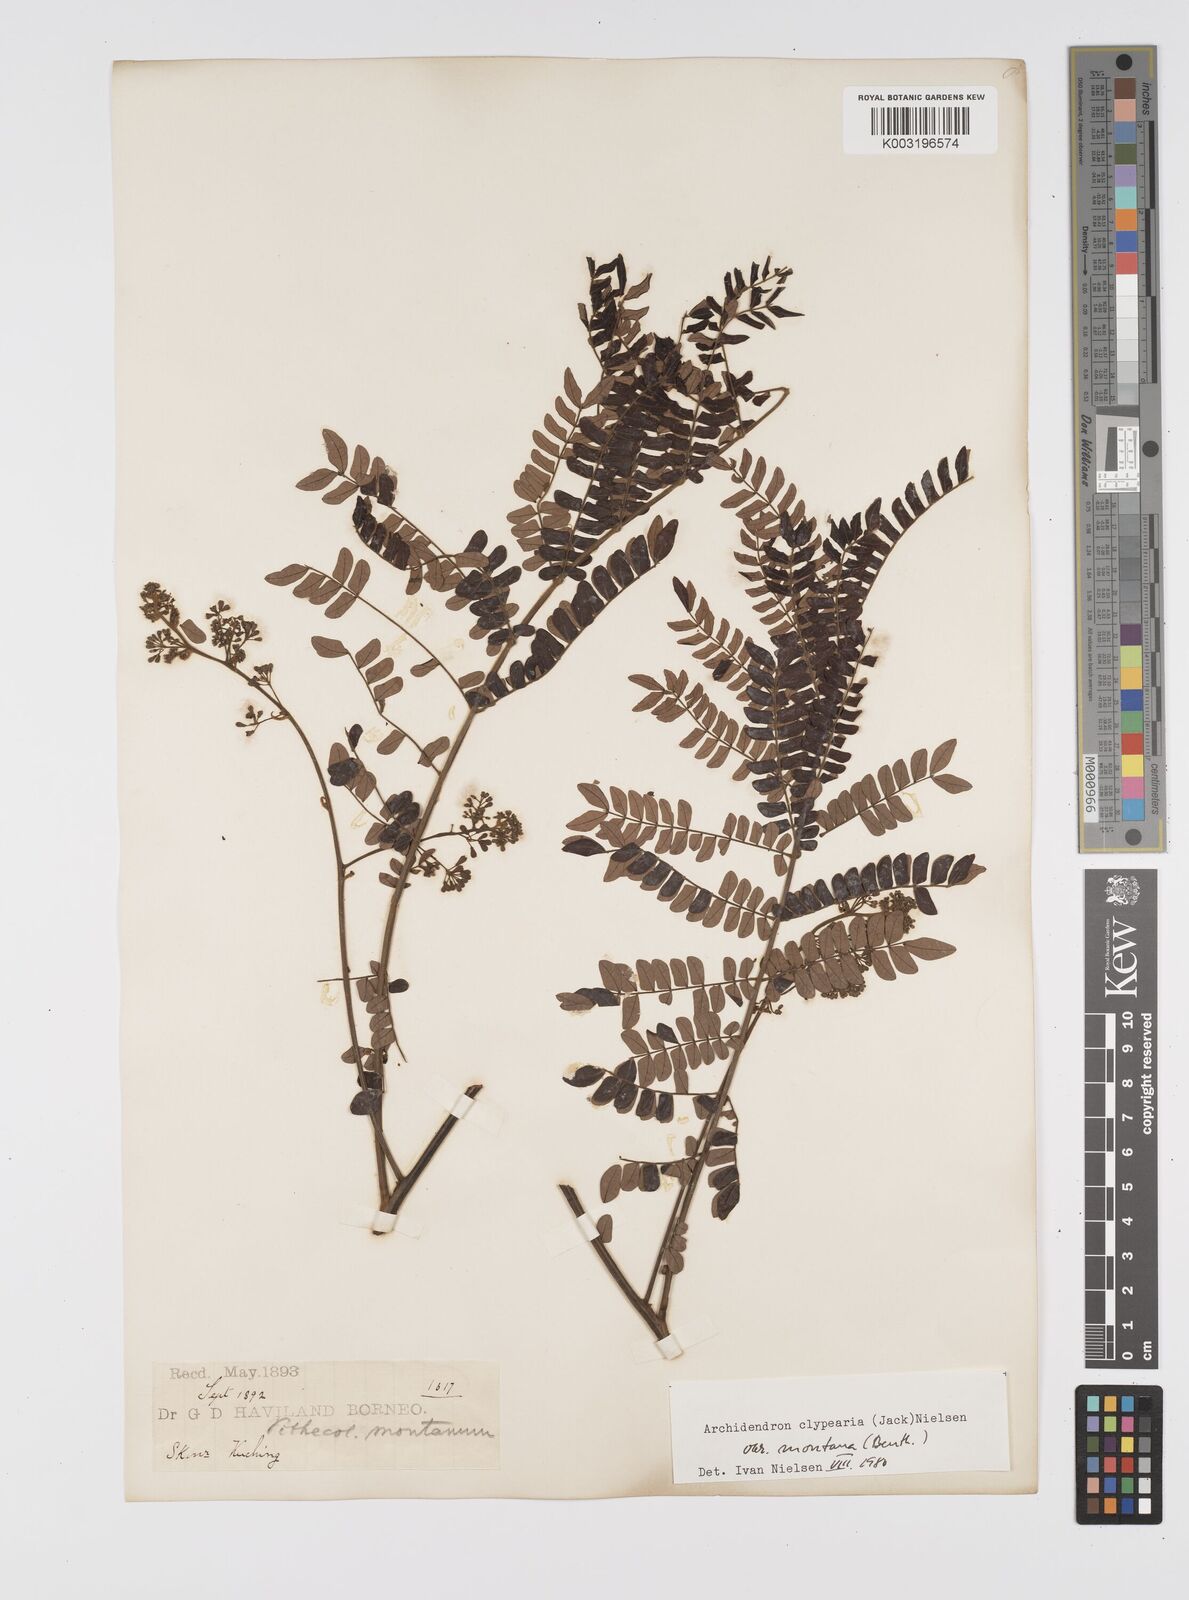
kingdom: Plantae
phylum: Tracheophyta
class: Magnoliopsida
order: Fabales
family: Fabaceae
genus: Archidendron
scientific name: Archidendron clypearia
